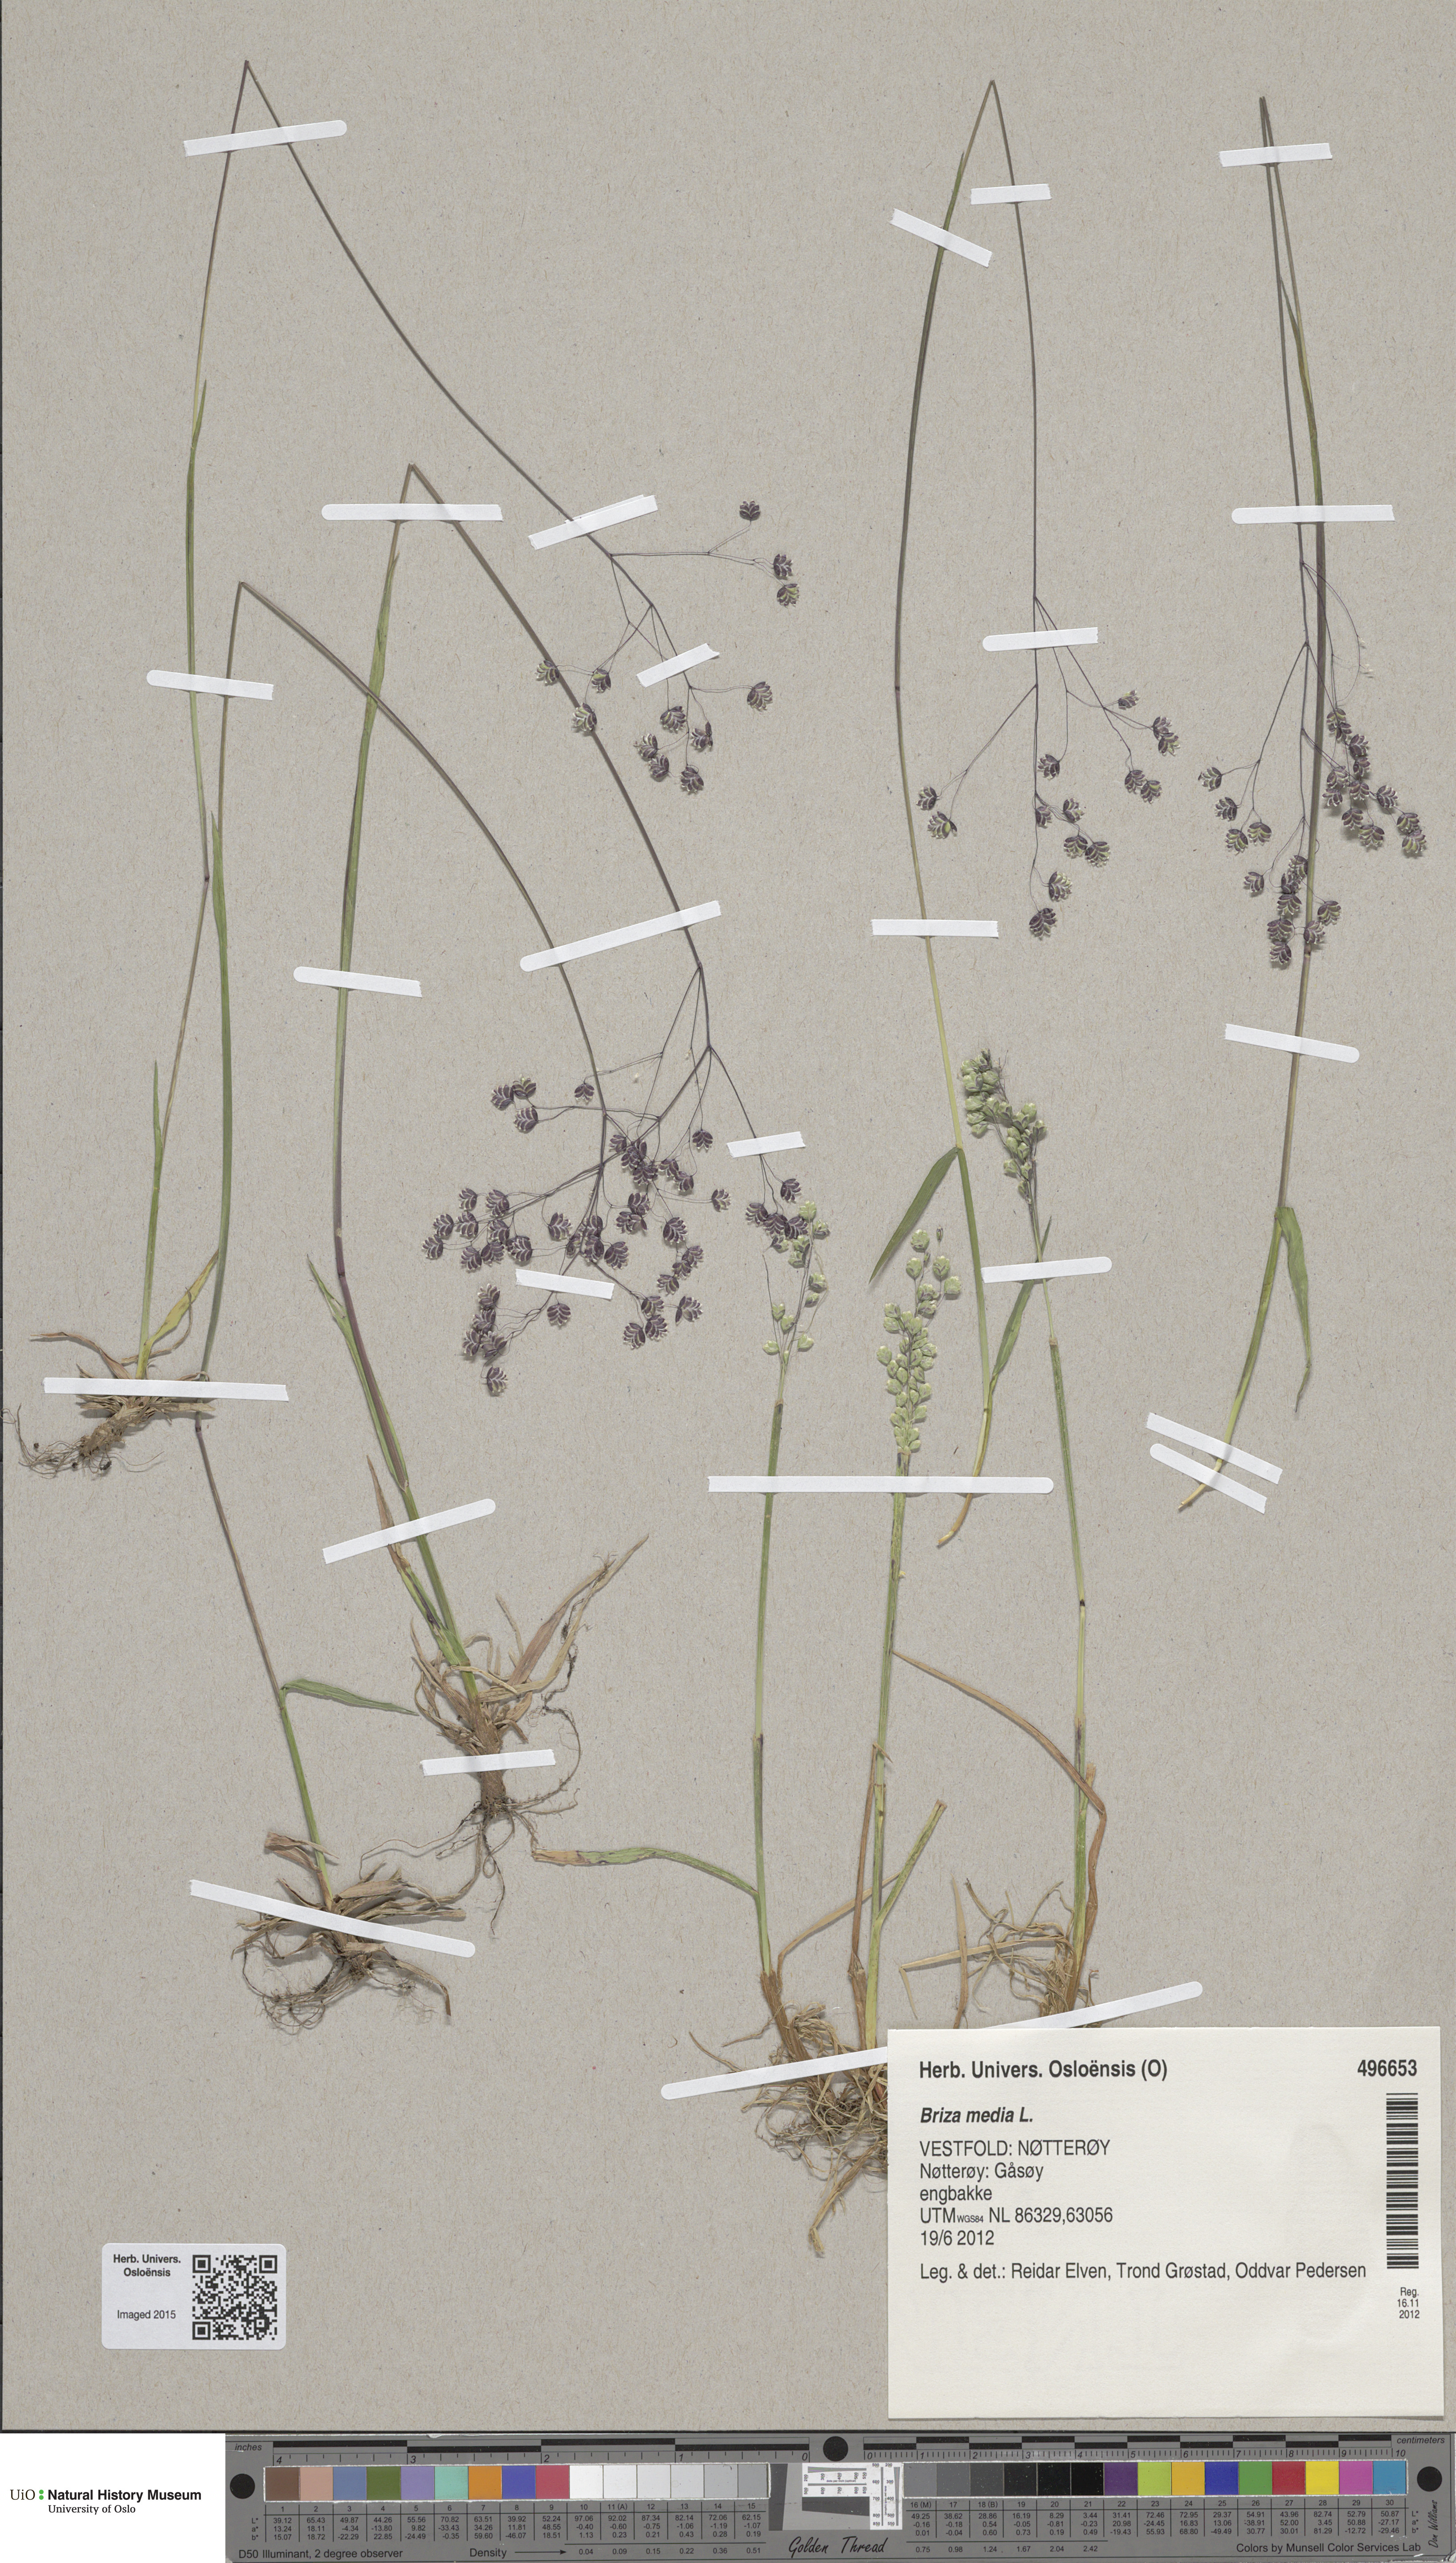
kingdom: Plantae
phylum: Tracheophyta
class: Liliopsida
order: Poales
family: Poaceae
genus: Briza
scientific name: Briza media
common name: Quaking grass
